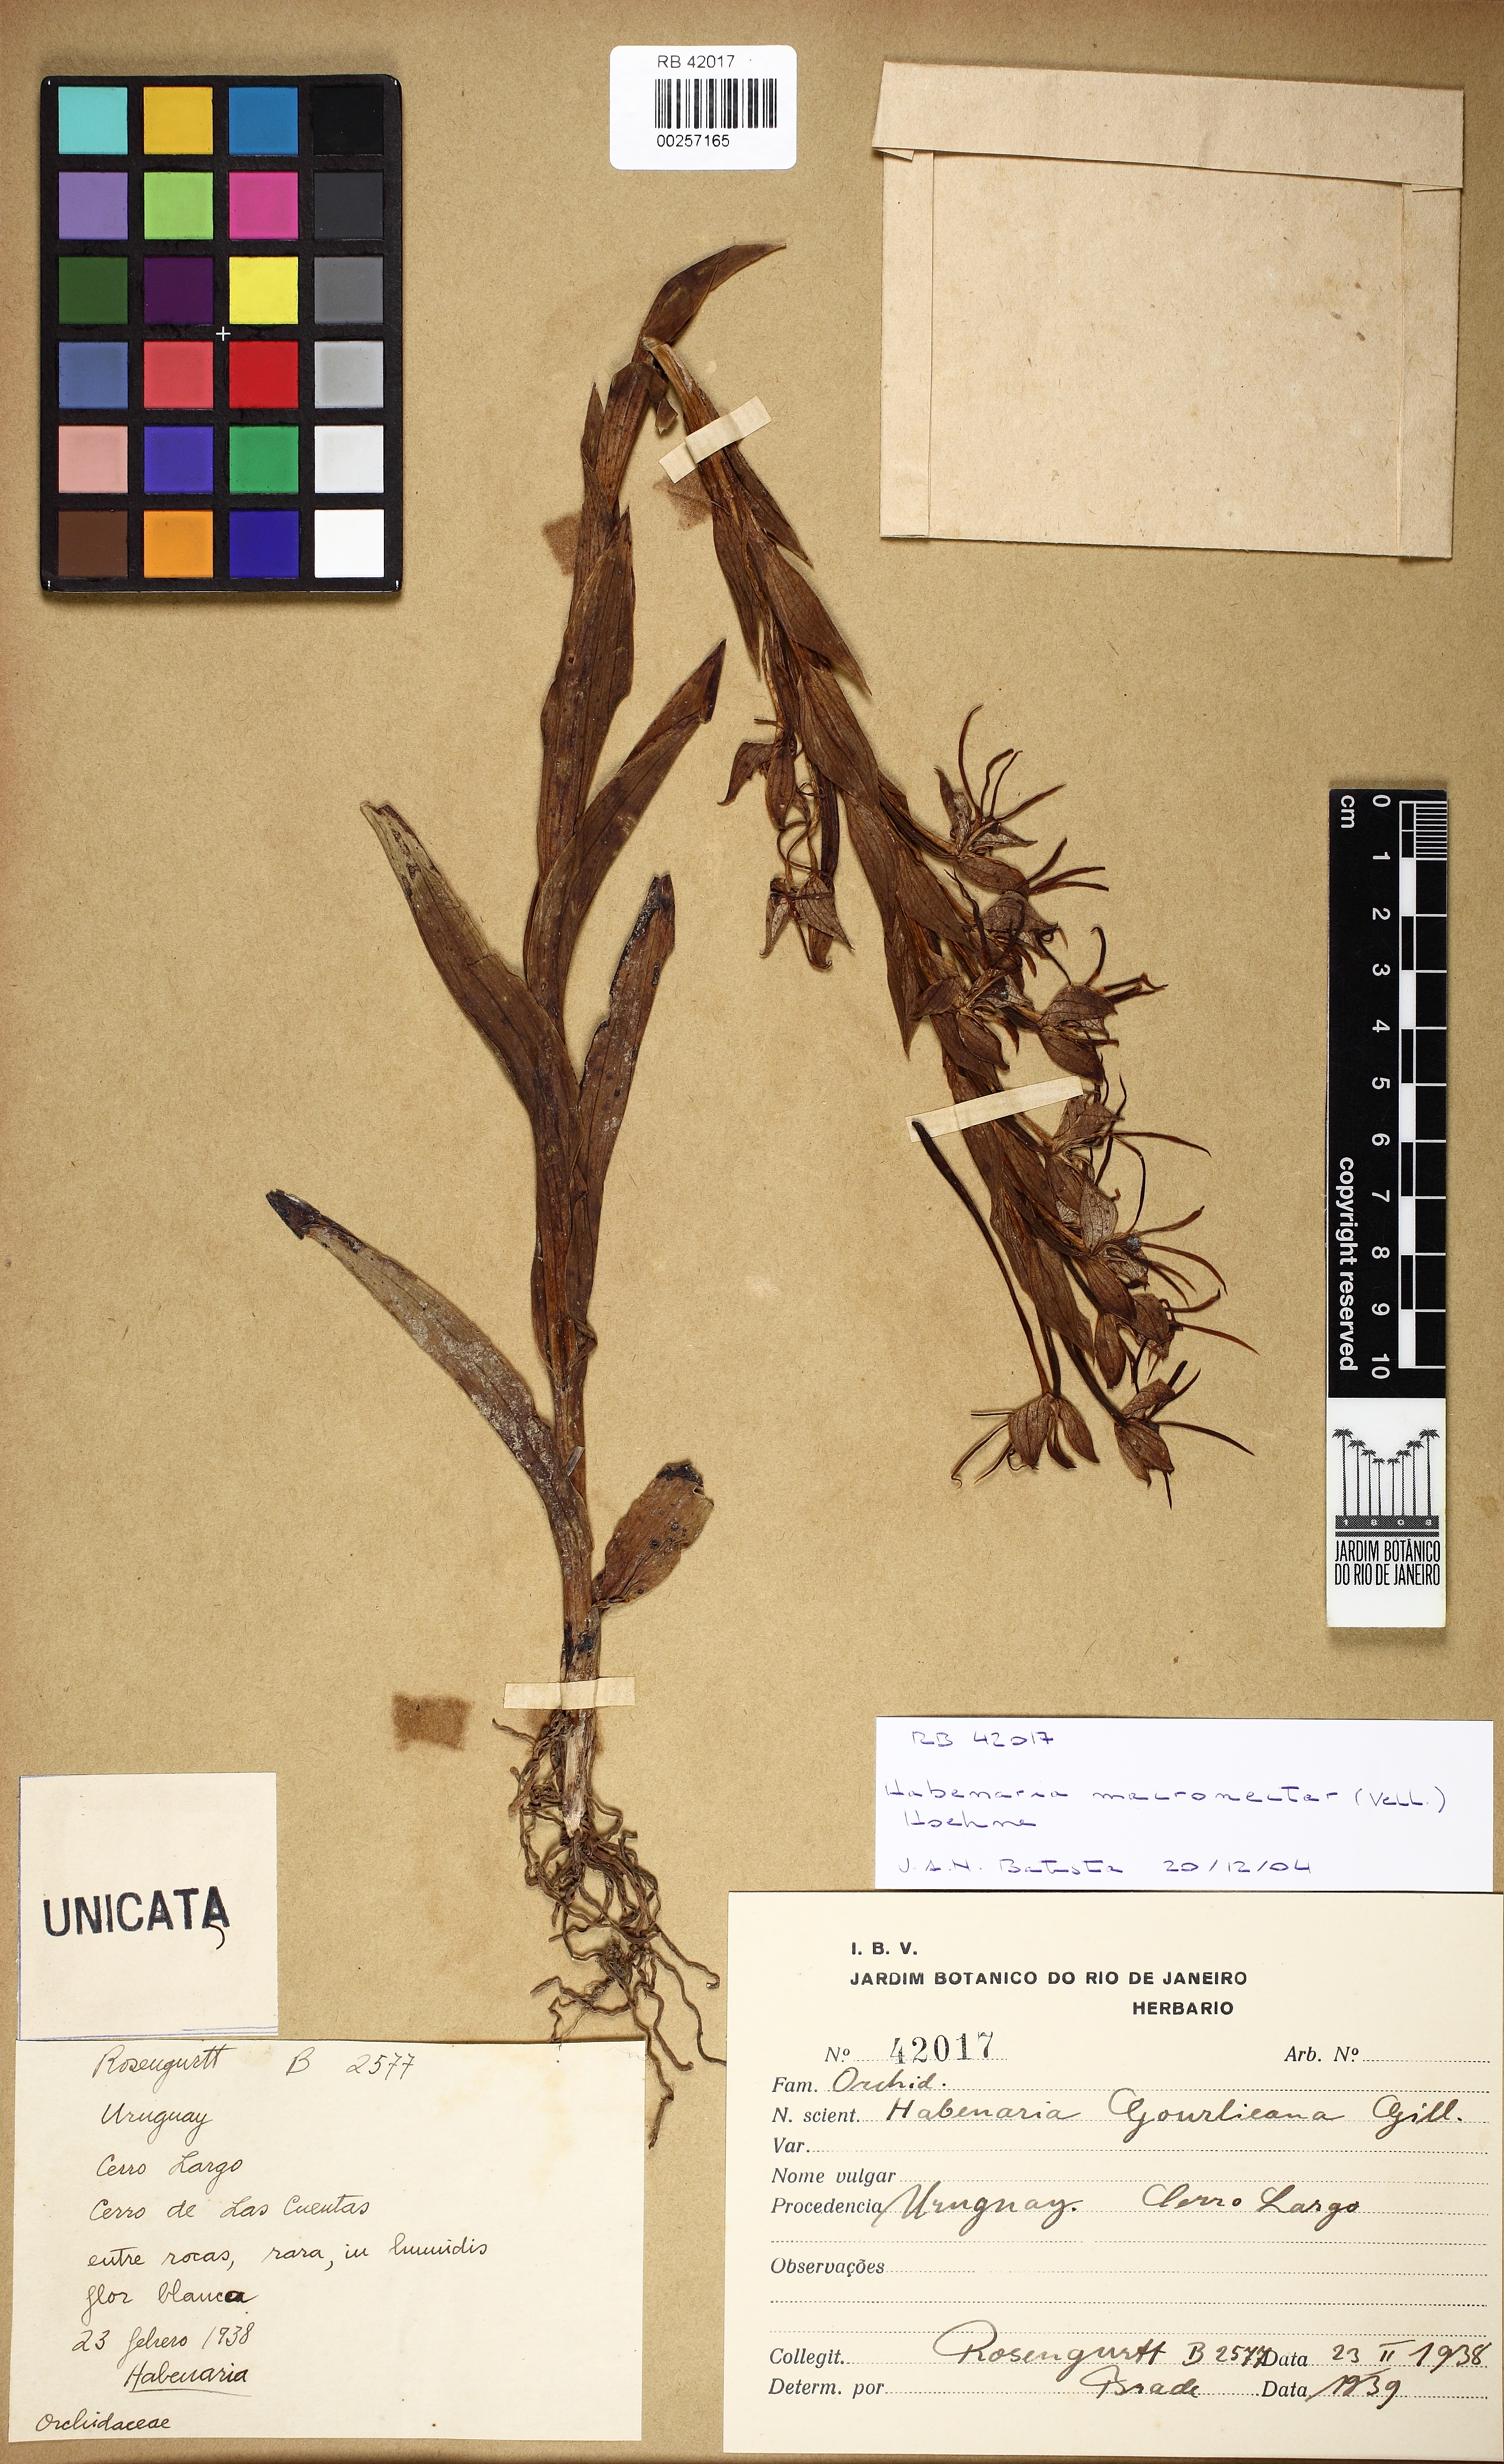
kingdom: Plantae
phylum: Tracheophyta
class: Liliopsida
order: Asparagales
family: Orchidaceae
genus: Habenaria
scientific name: Habenaria macronectar
